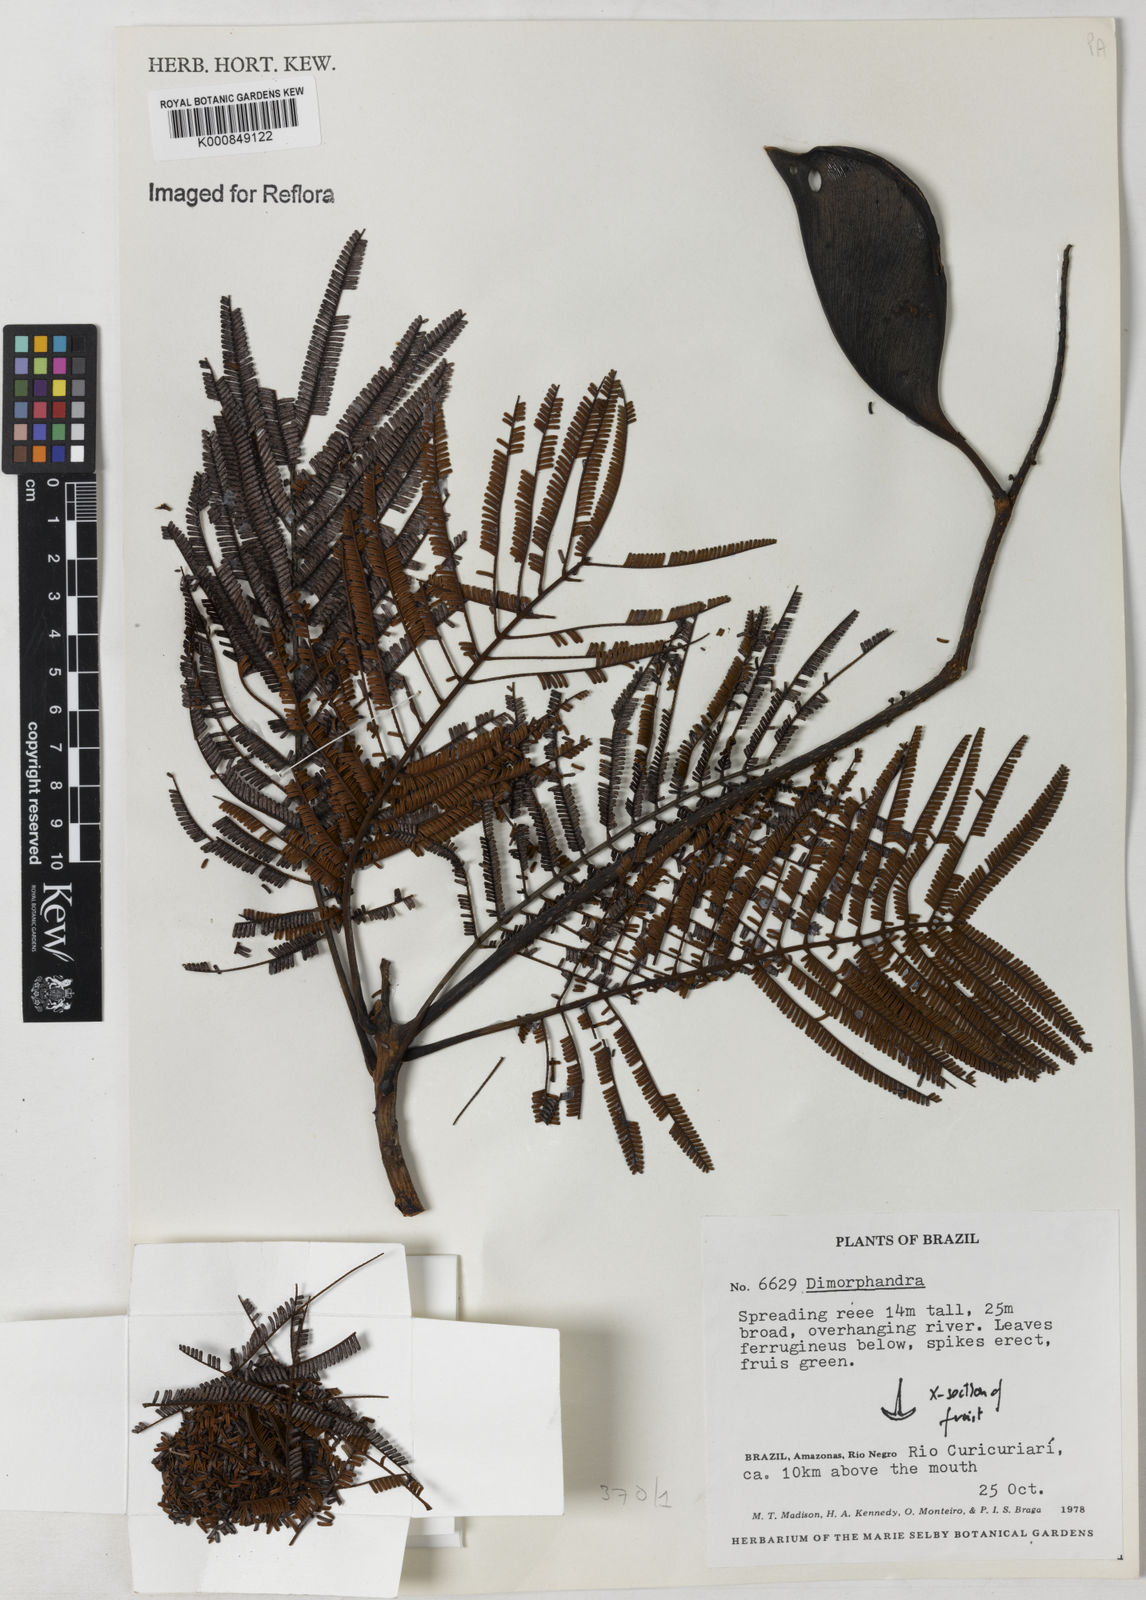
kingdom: Plantae
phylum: Tracheophyta
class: Magnoliopsida
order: Fabales
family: Fabaceae
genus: Dimorphandra
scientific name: Dimorphandra
